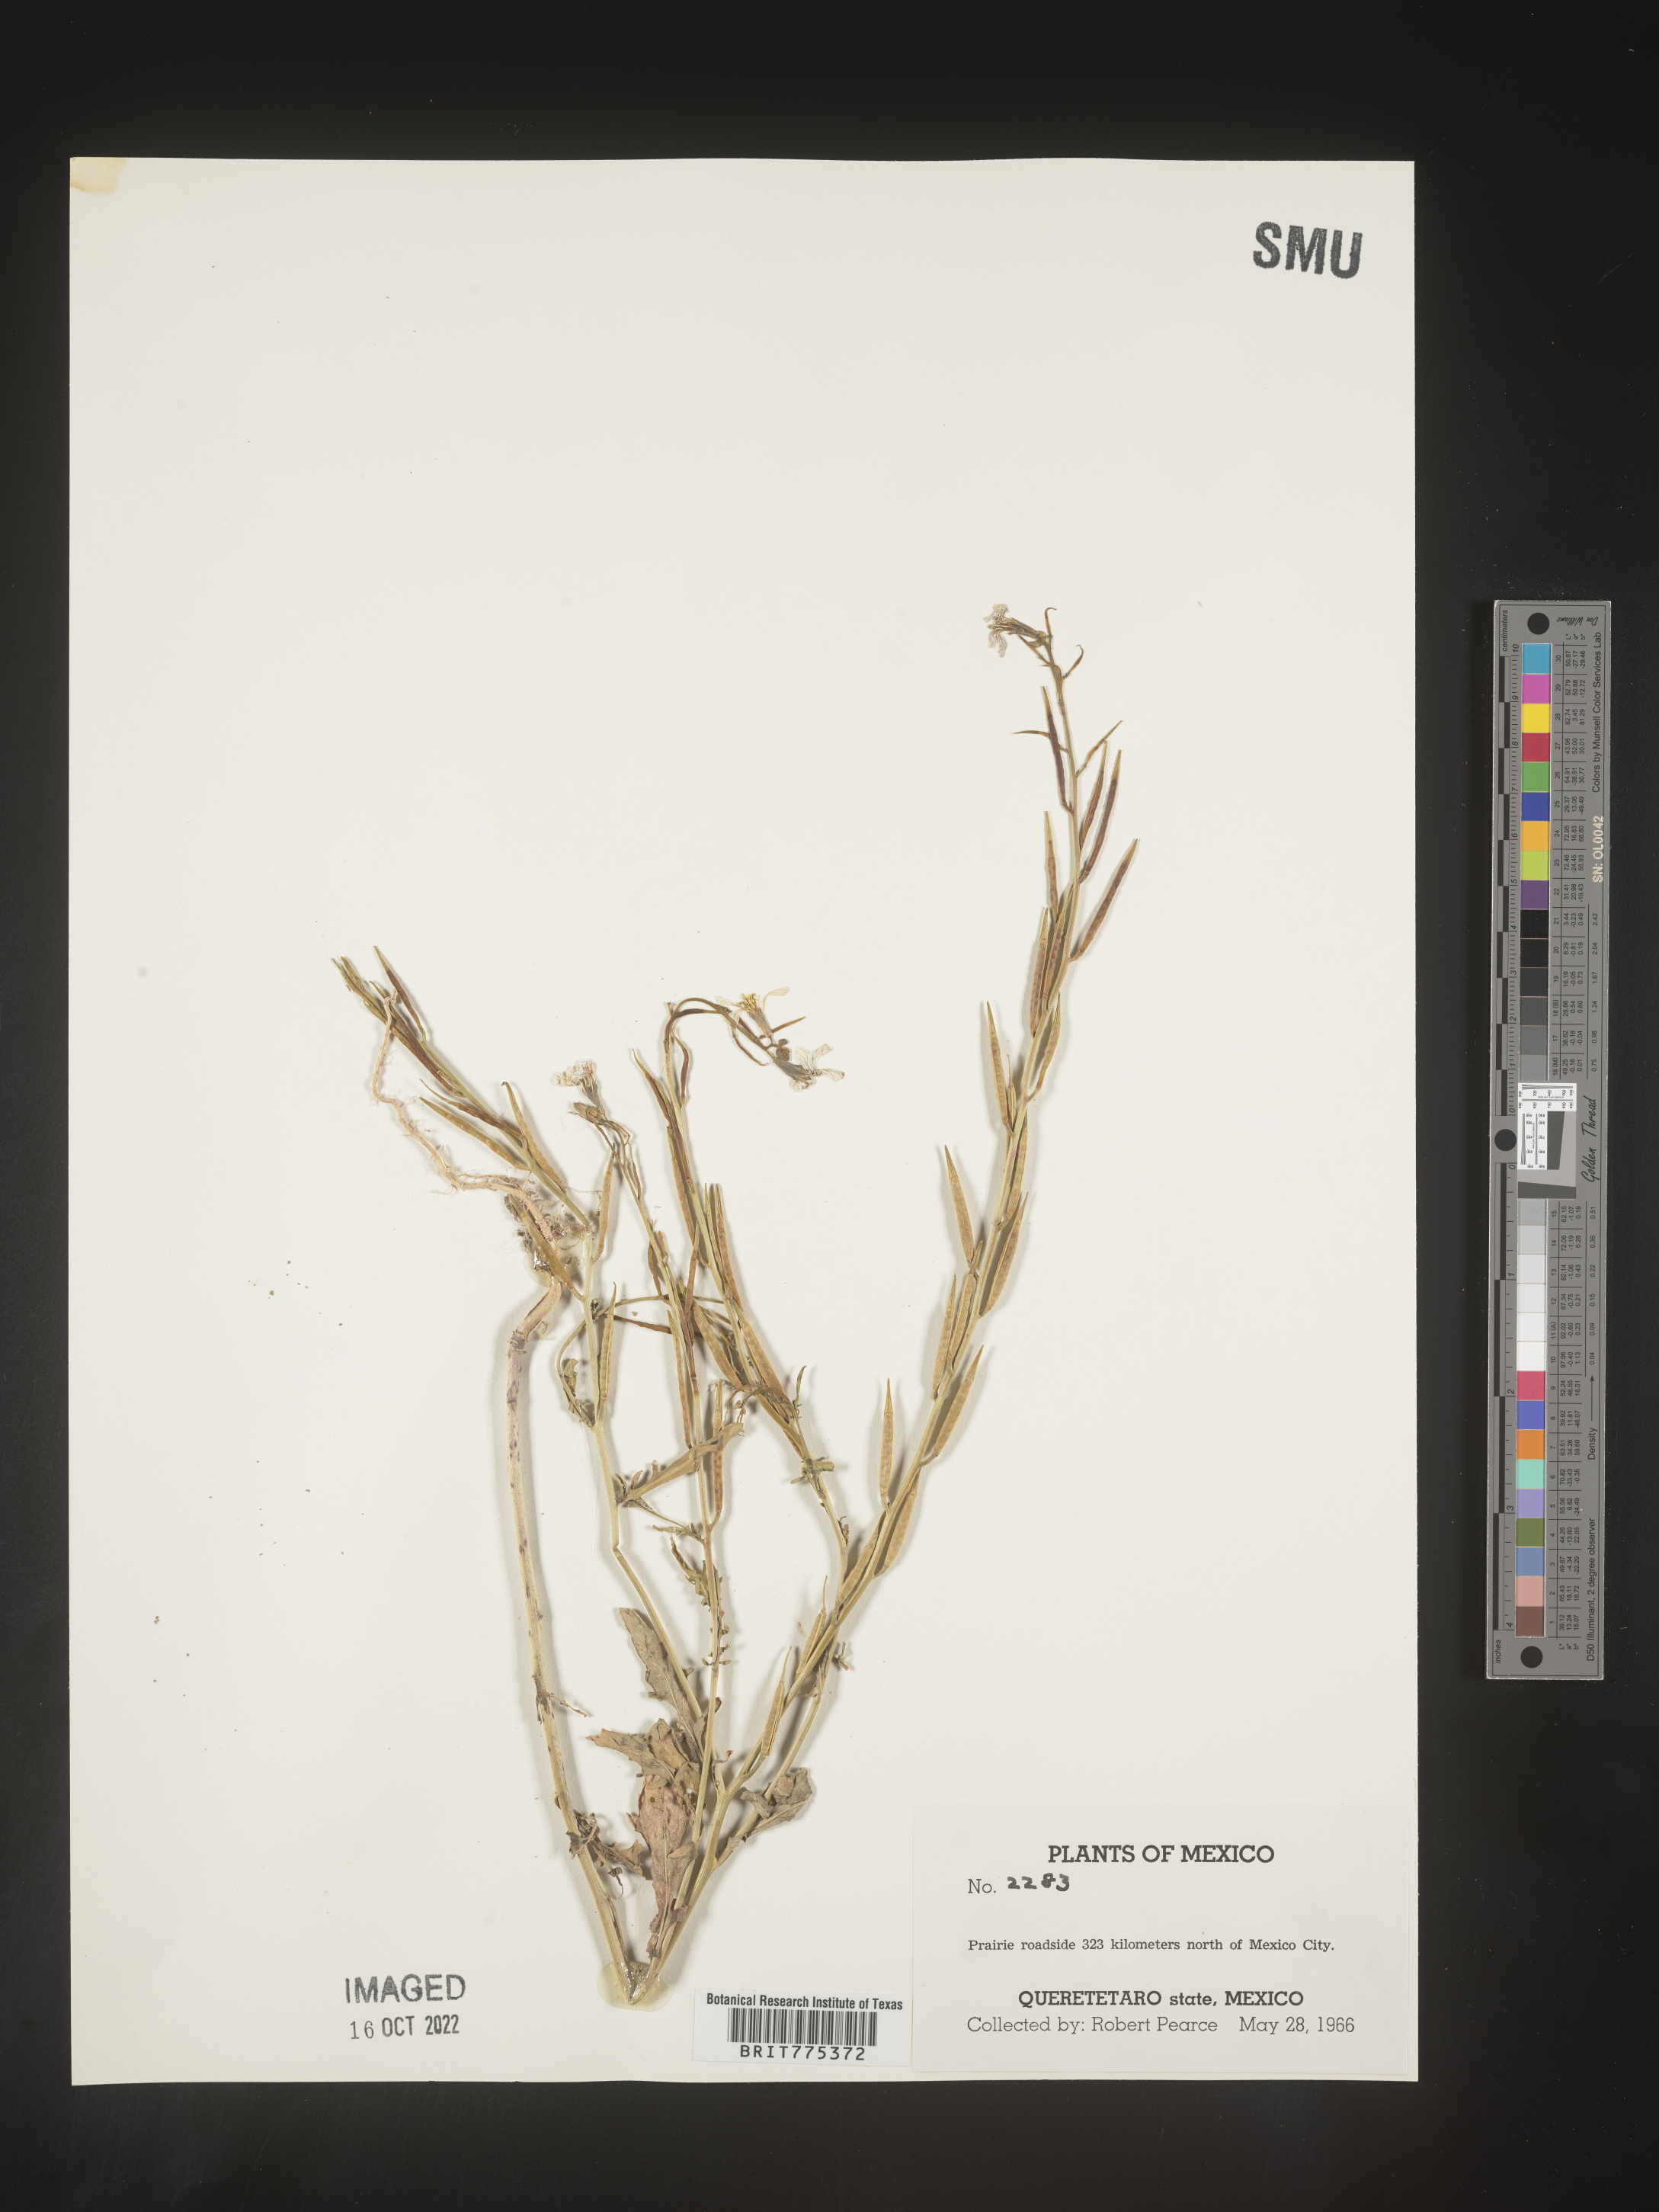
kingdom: Plantae
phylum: Tracheophyta
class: Magnoliopsida
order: Brassicales
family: Brassicaceae
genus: Eruca
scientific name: Eruca
